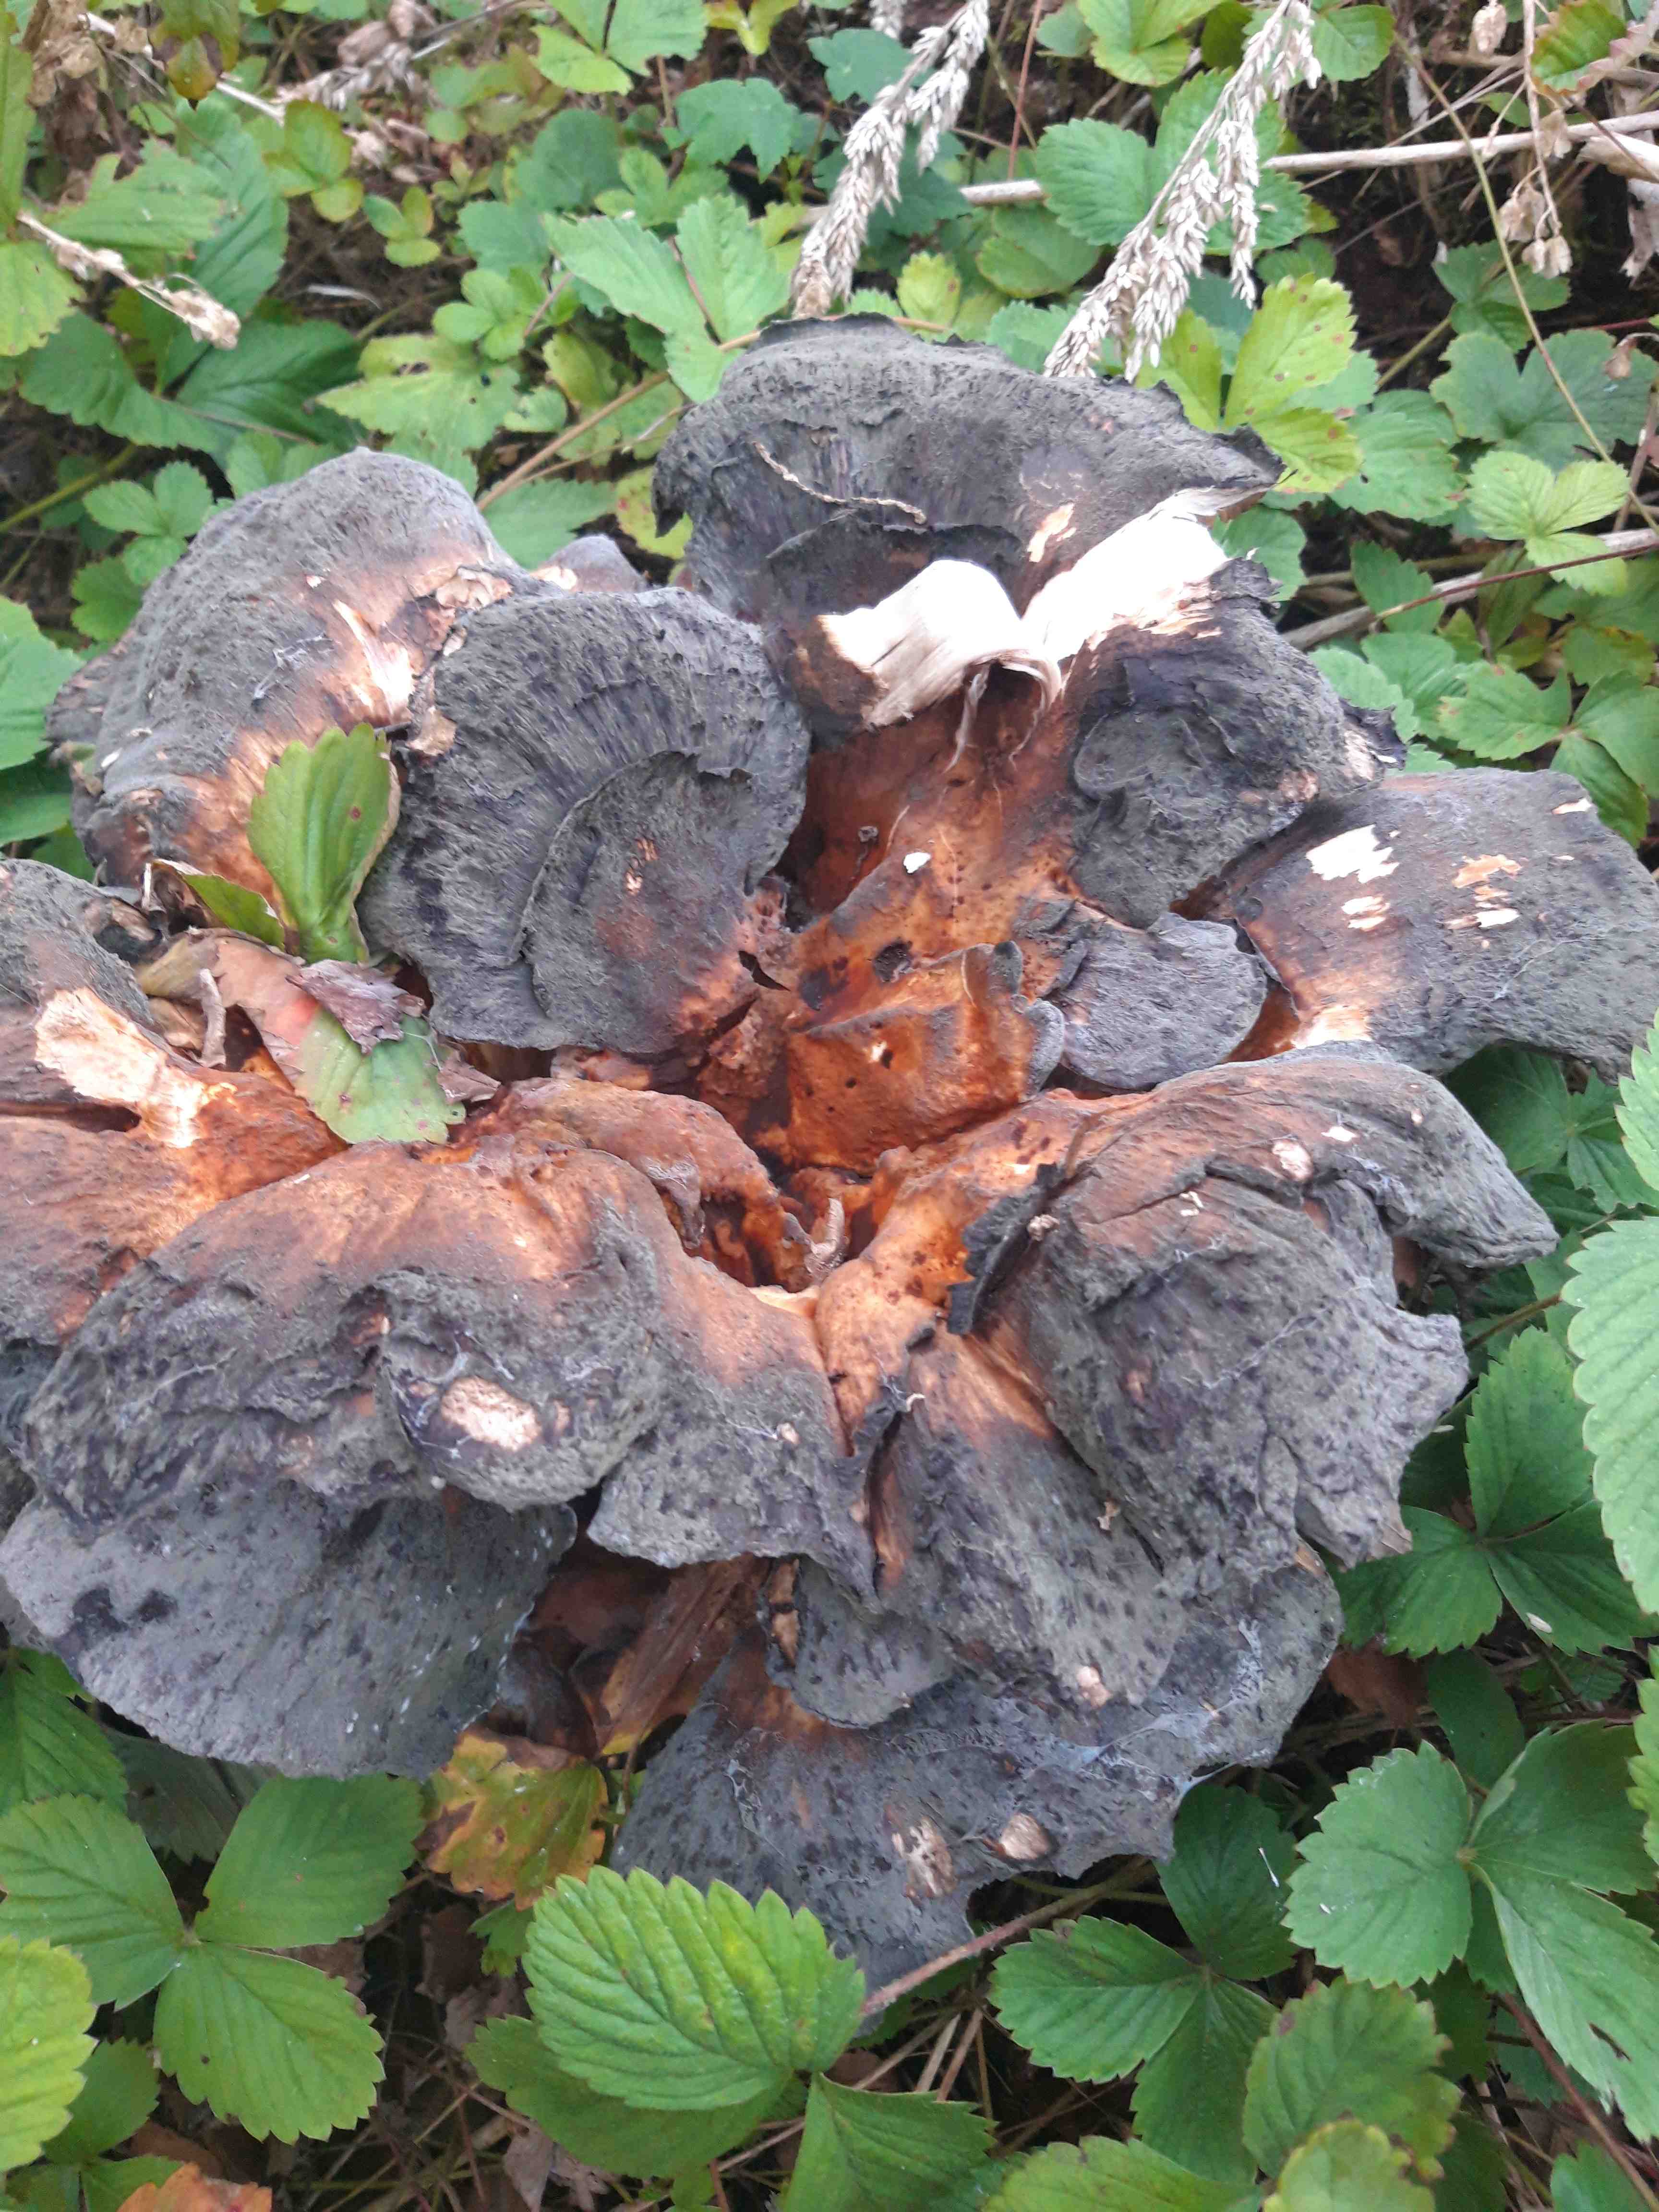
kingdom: Fungi
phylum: Basidiomycota
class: Agaricomycetes
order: Polyporales
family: Meripilaceae
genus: Meripilus
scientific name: Meripilus giganteus
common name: kæmpeporesvamp
